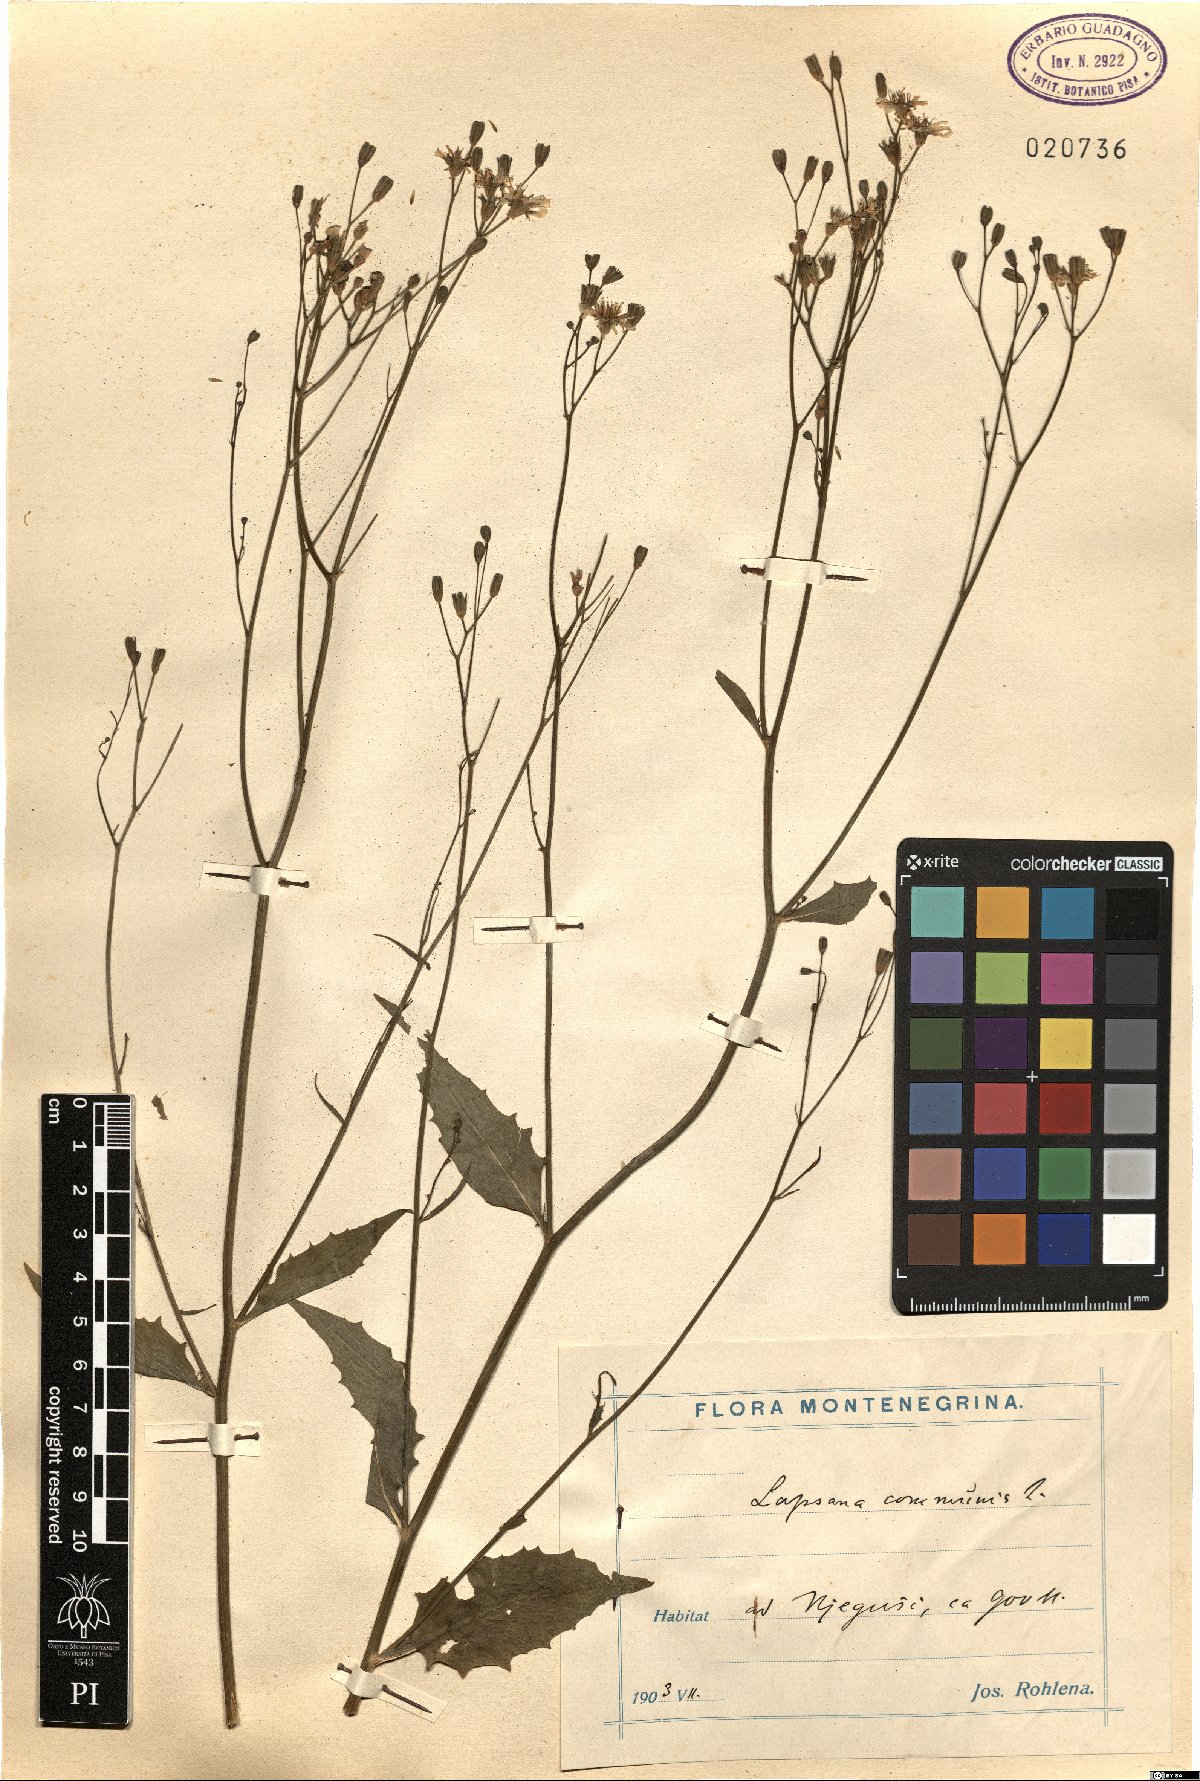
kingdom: Plantae
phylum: Tracheophyta
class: Magnoliopsida
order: Asterales
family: Asteraceae
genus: Lapsana
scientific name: Lapsana communis
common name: Nipplewort
